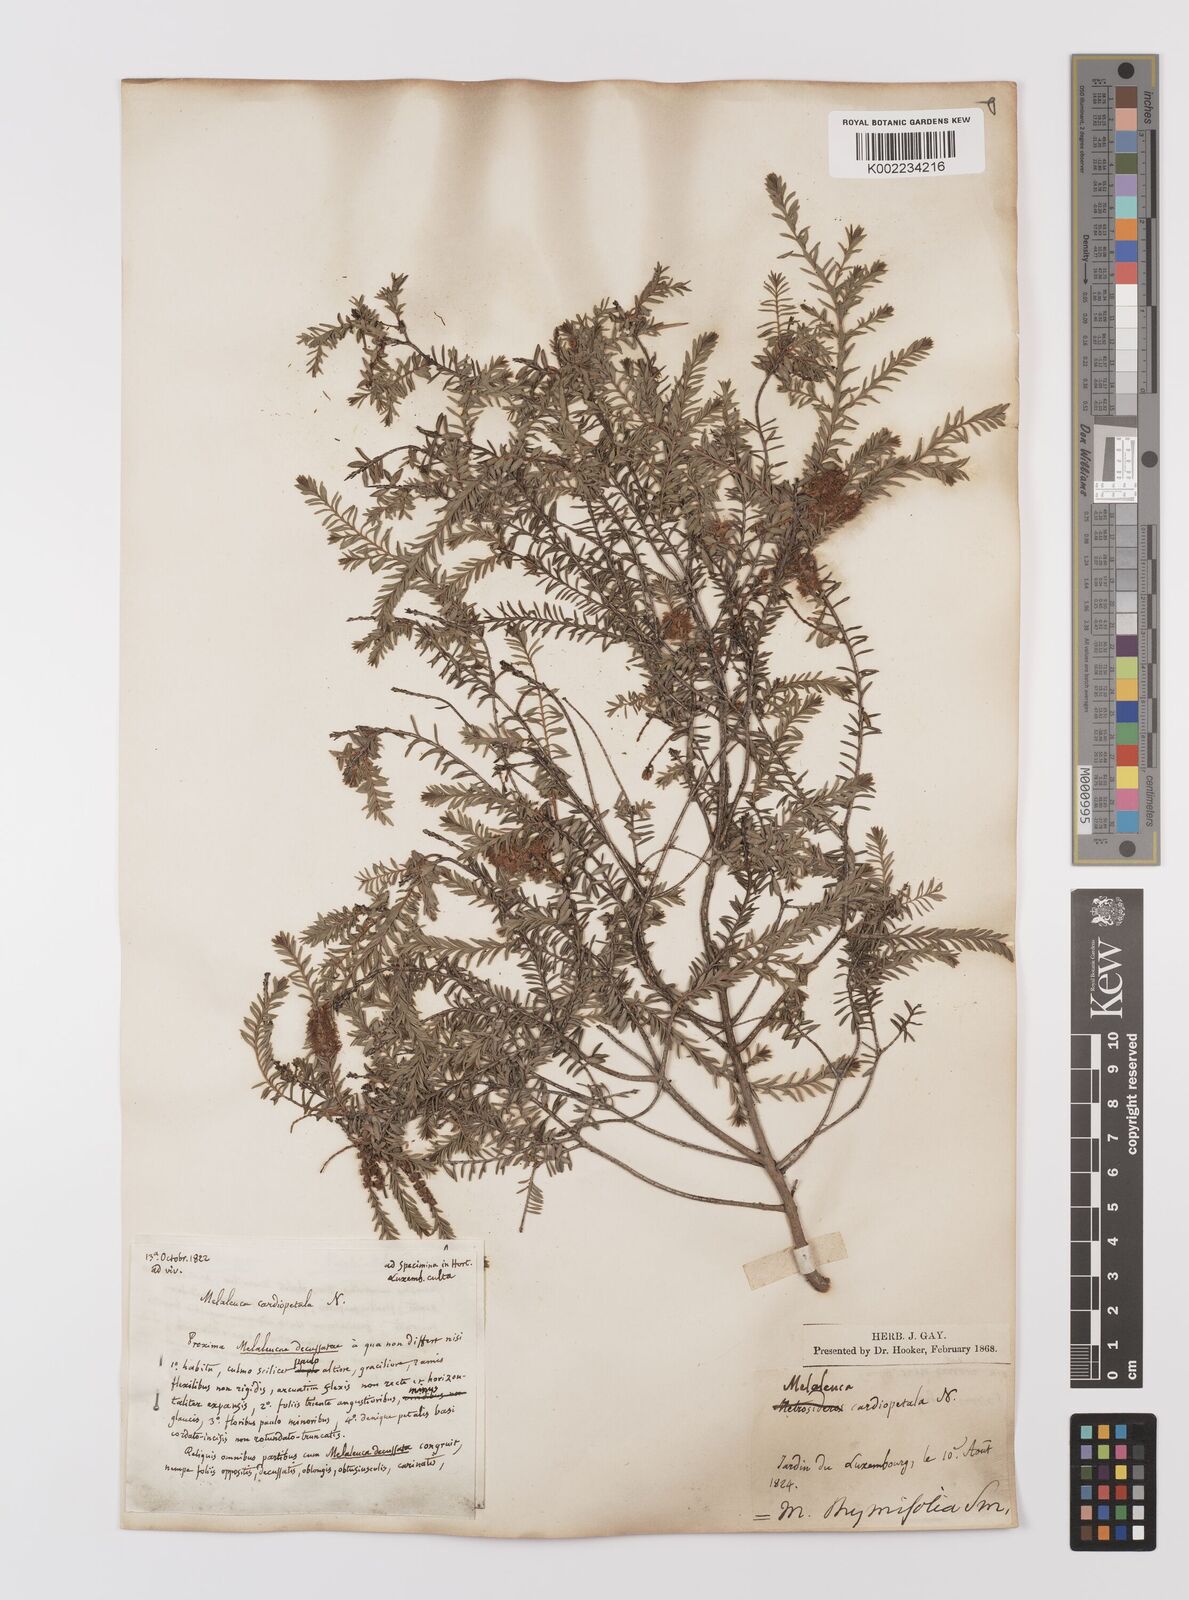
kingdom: Plantae
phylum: Tracheophyta
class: Magnoliopsida
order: Myrtales
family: Myrtaceae
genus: Melaleuca
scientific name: Melaleuca thymifolia
